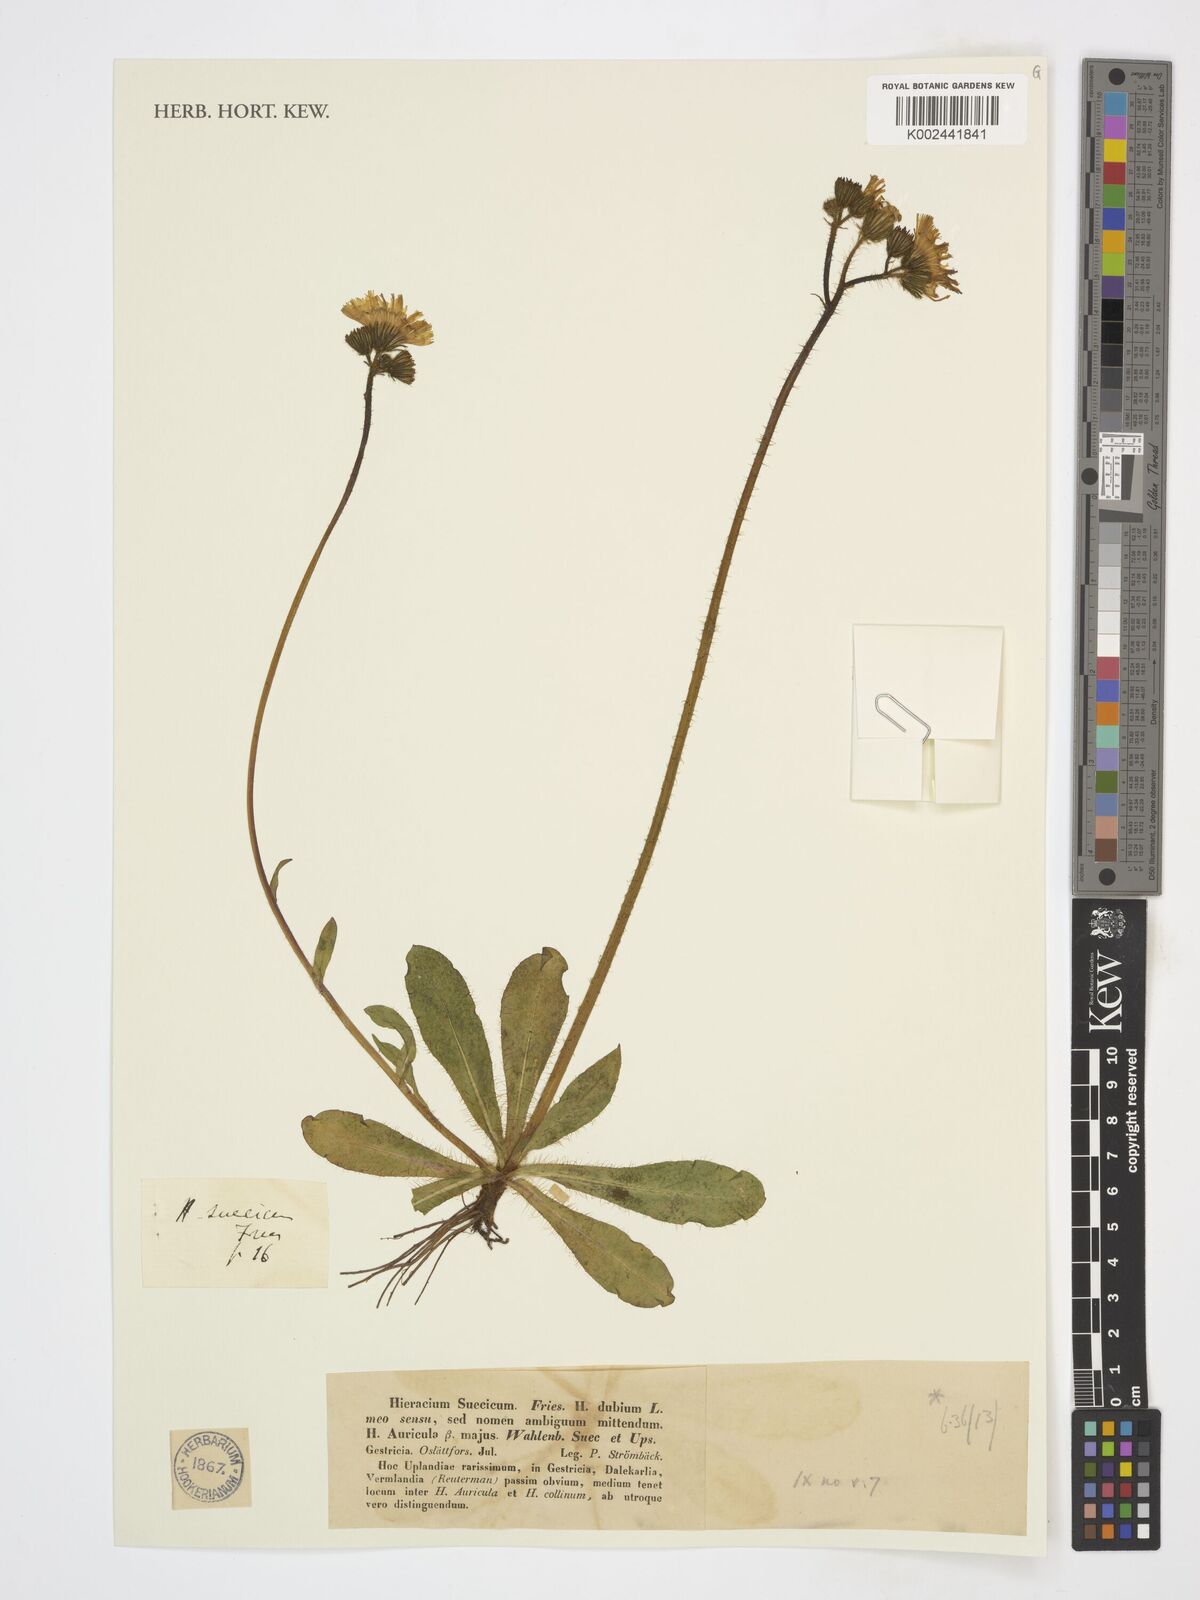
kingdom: Plantae
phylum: Tracheophyta
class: Magnoliopsida
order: Asterales
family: Asteraceae
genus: Pilosella
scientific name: Pilosella floribunda
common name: Glaucous hawkweed
